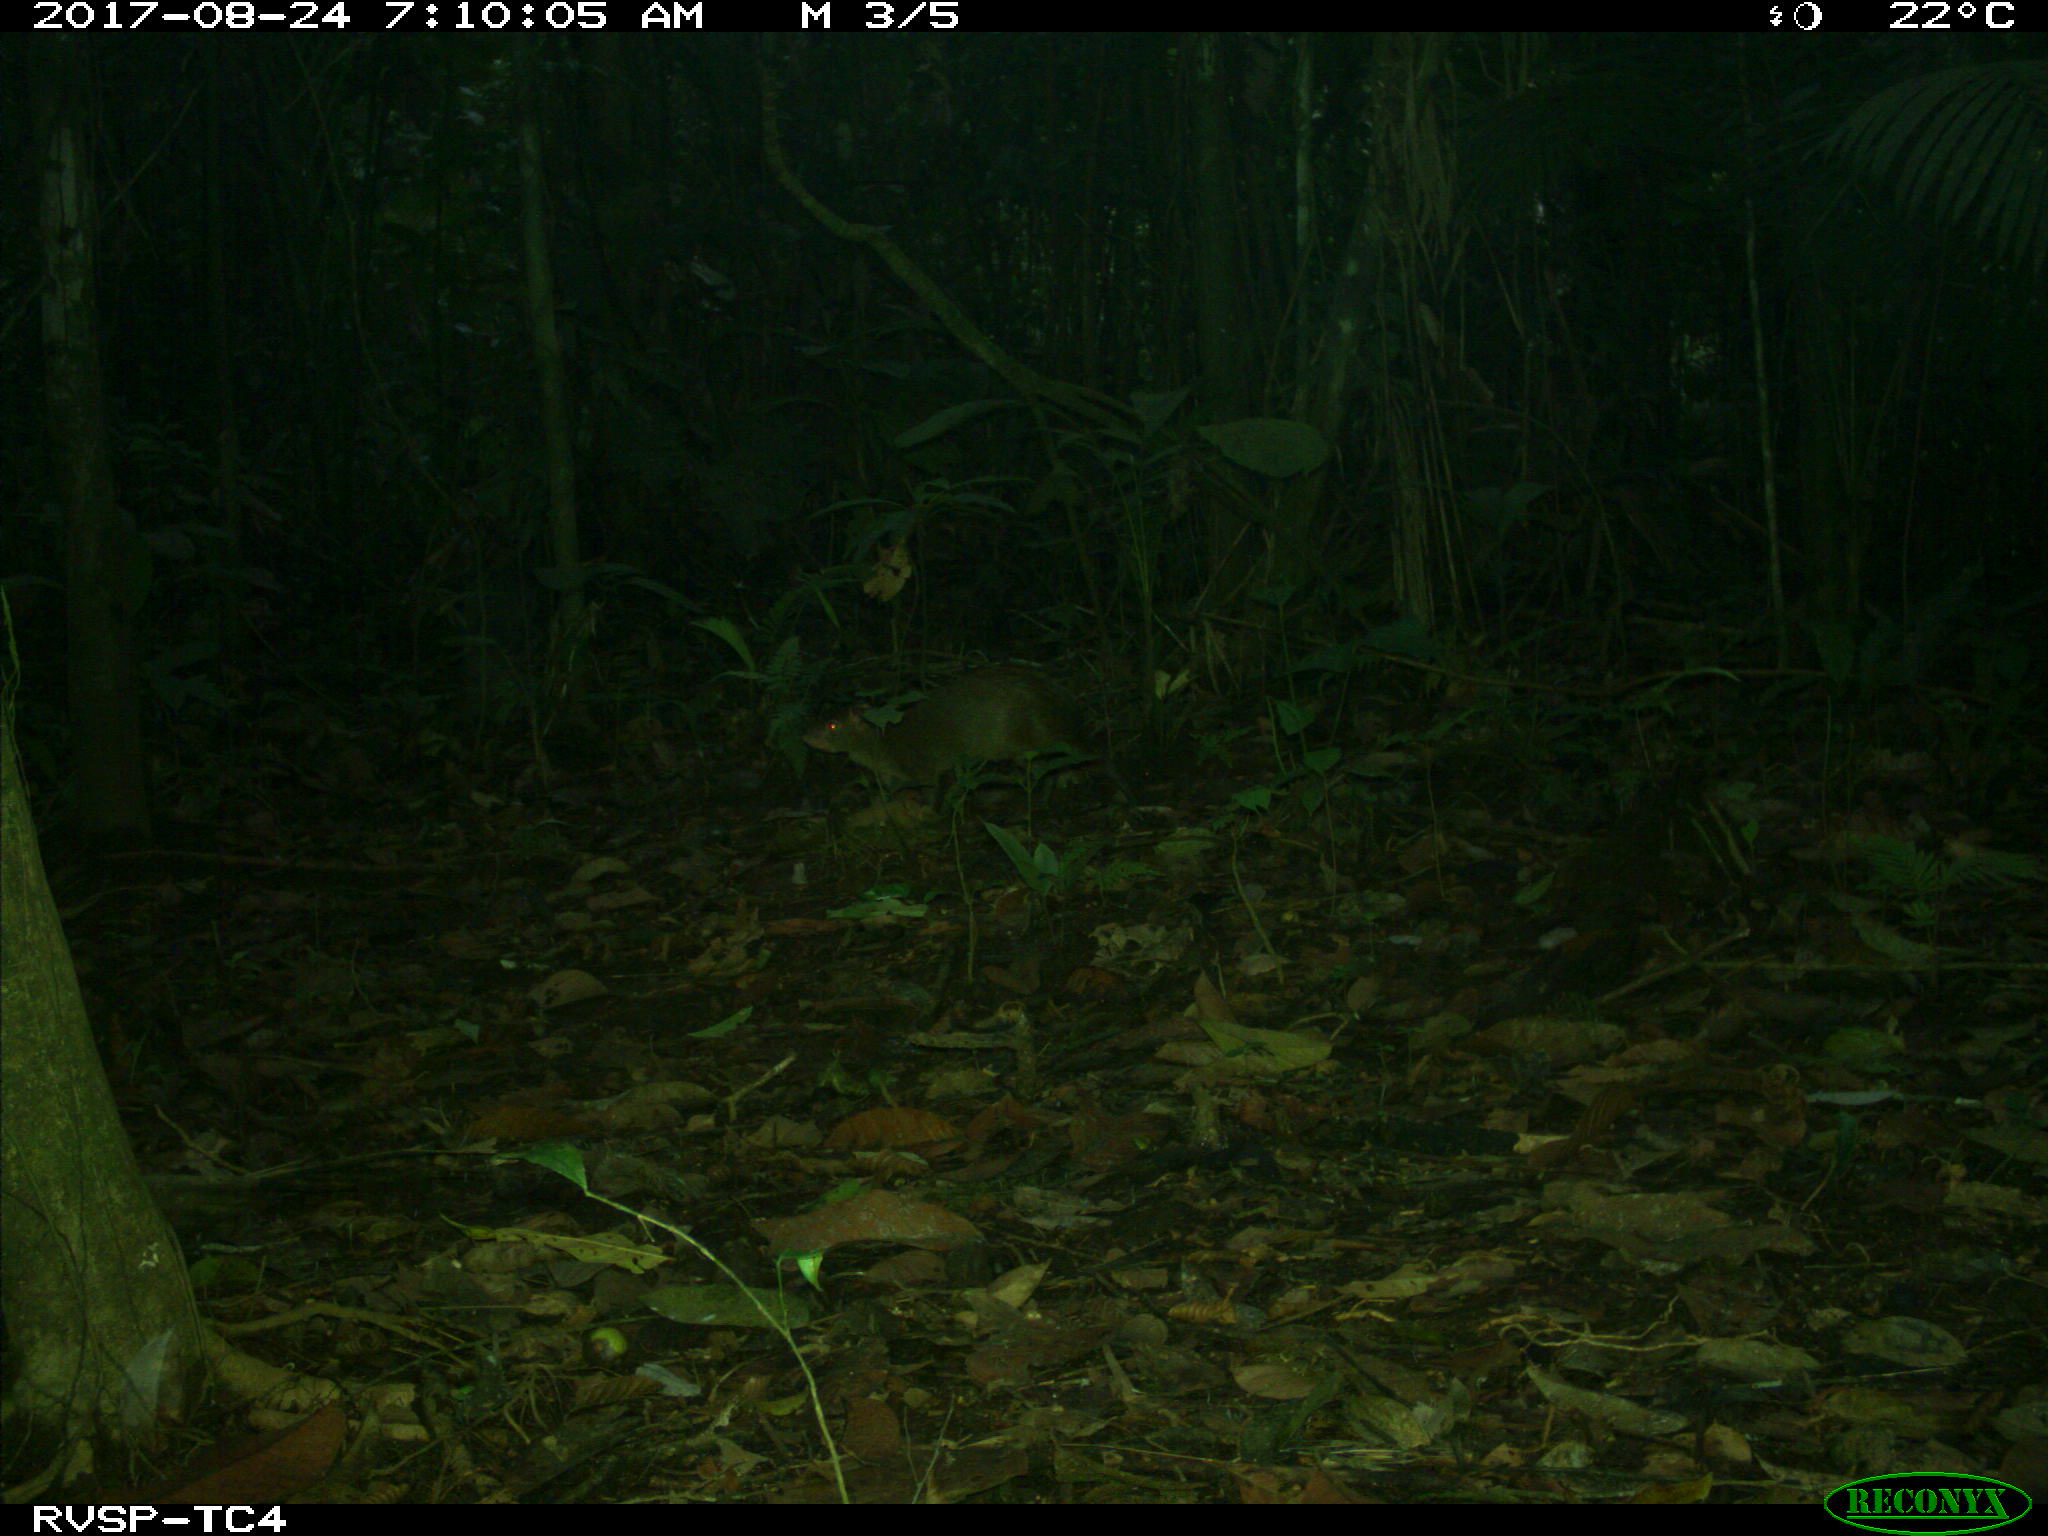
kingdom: Animalia
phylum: Chordata
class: Mammalia
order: Rodentia
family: Dasyproctidae
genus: Dasyprocta
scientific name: Dasyprocta punctata
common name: Central american agouti
